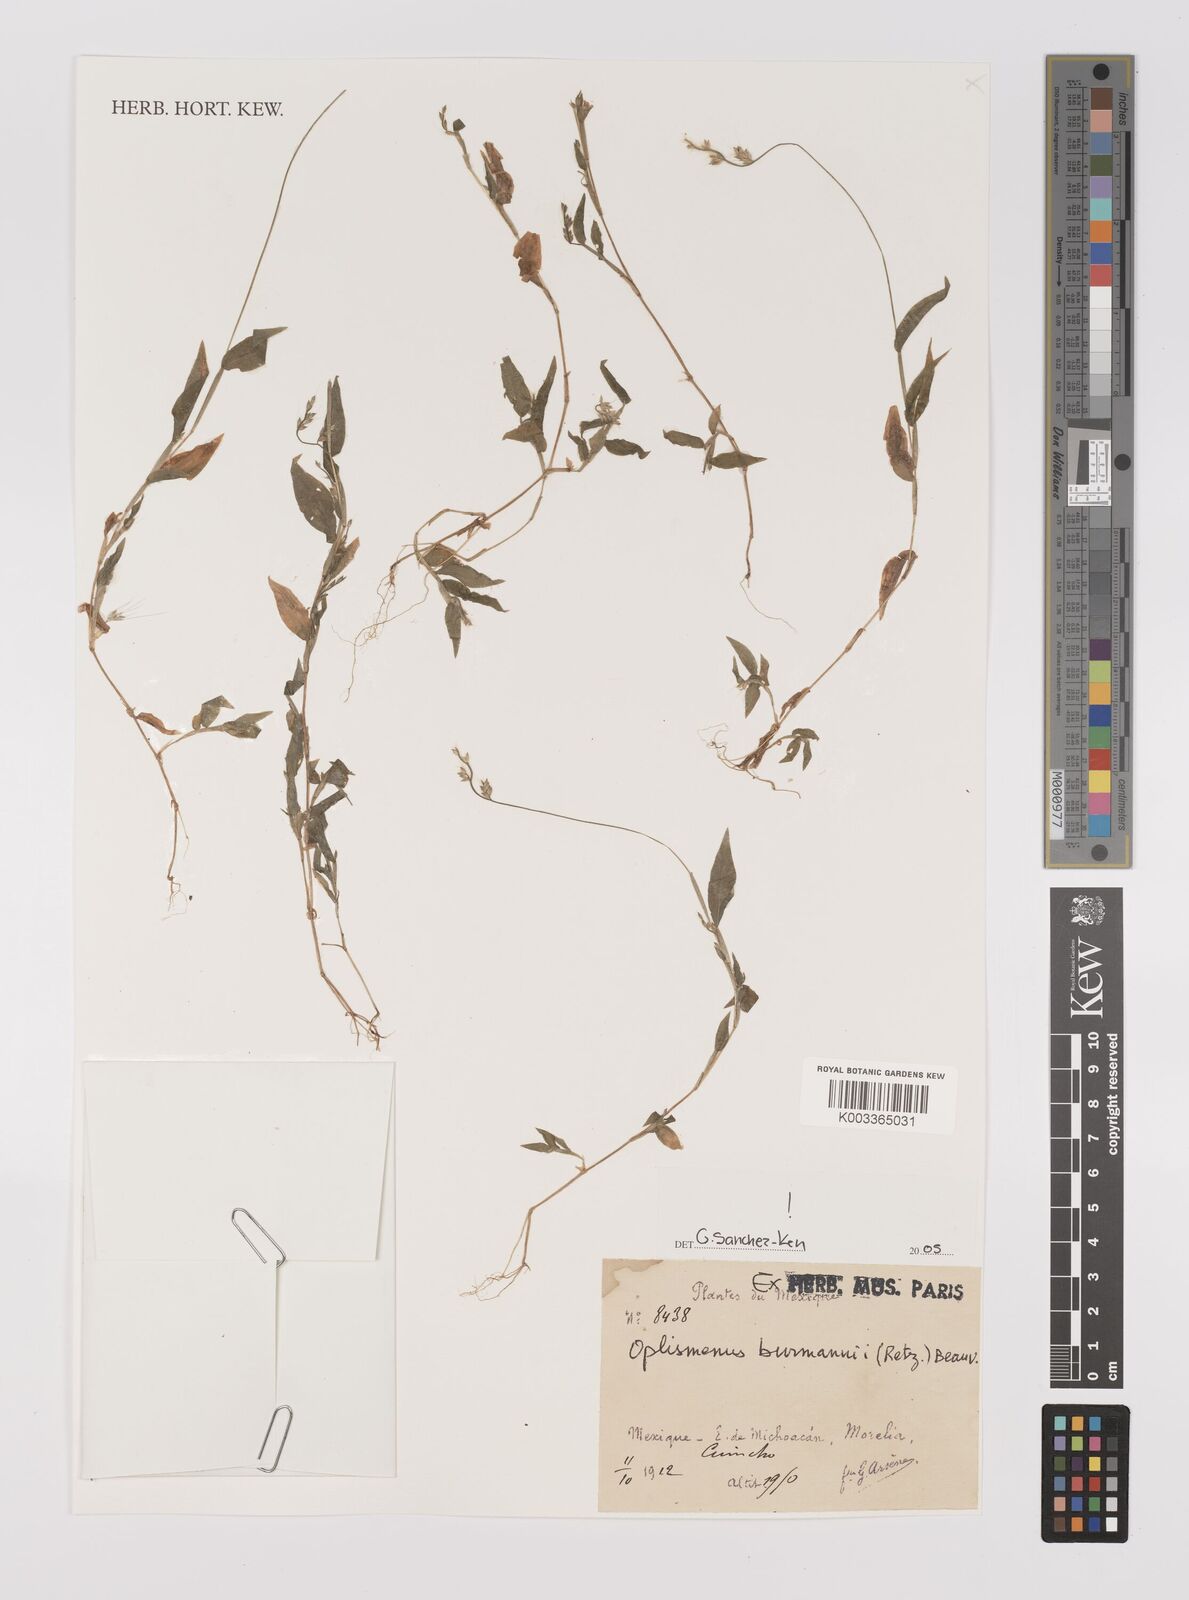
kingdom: Plantae
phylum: Tracheophyta
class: Liliopsida
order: Poales
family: Poaceae
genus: Oplismenus
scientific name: Oplismenus burmanni
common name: Burmann's basketgrass
